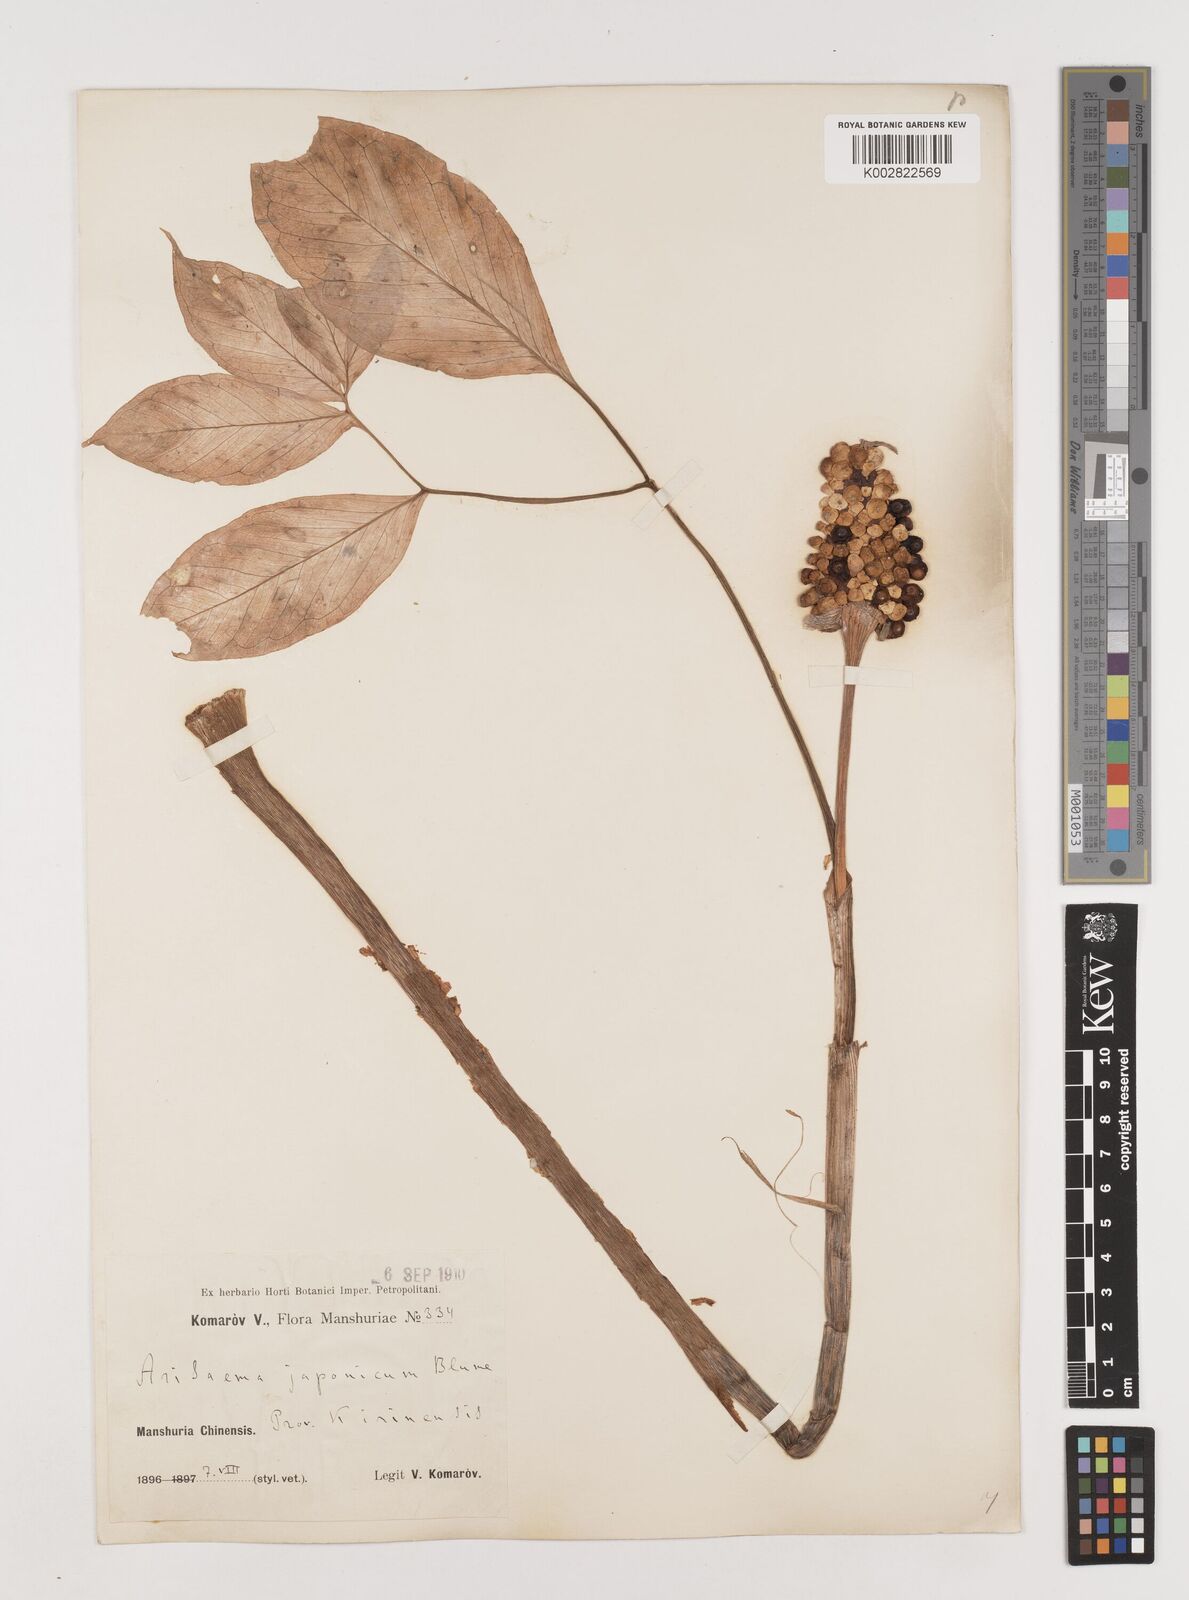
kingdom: Plantae
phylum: Tracheophyta
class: Liliopsida
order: Alismatales
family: Araceae
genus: Arisaema
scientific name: Arisaema serratum
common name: Japanese arisaema
